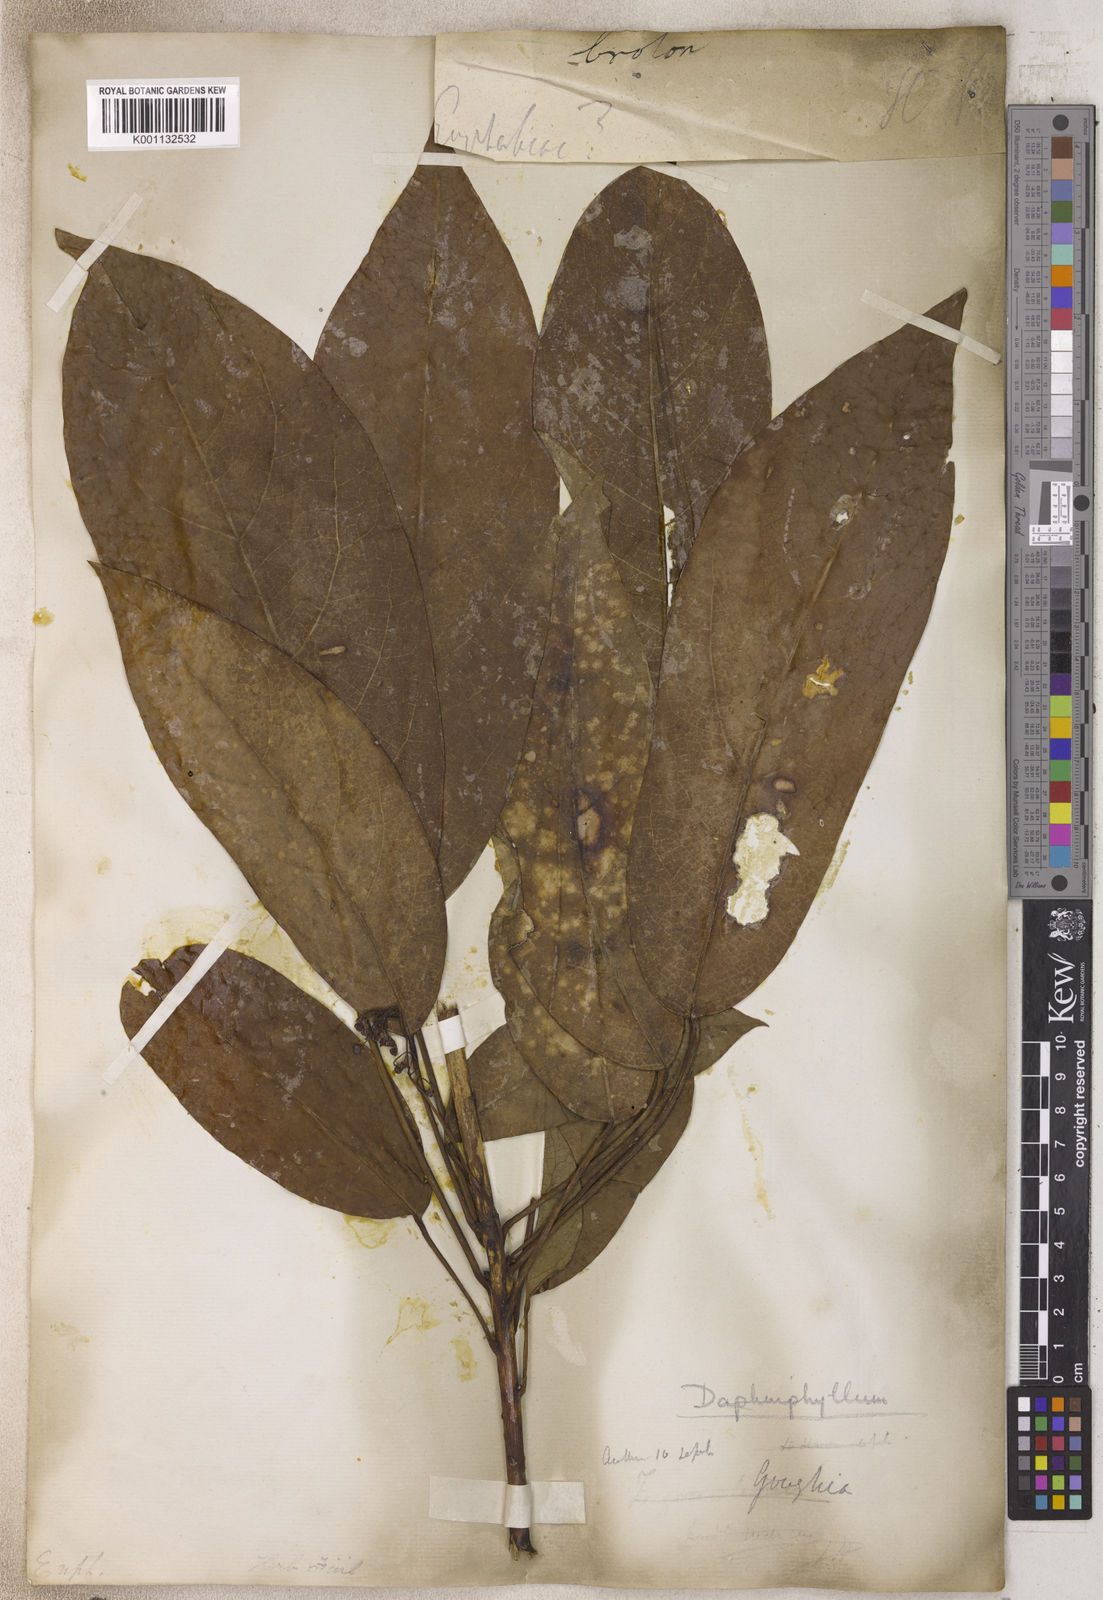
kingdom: Plantae
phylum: Tracheophyta
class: Magnoliopsida
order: Malpighiales
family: Euphorbiaceae
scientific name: Euphorbiaceae
